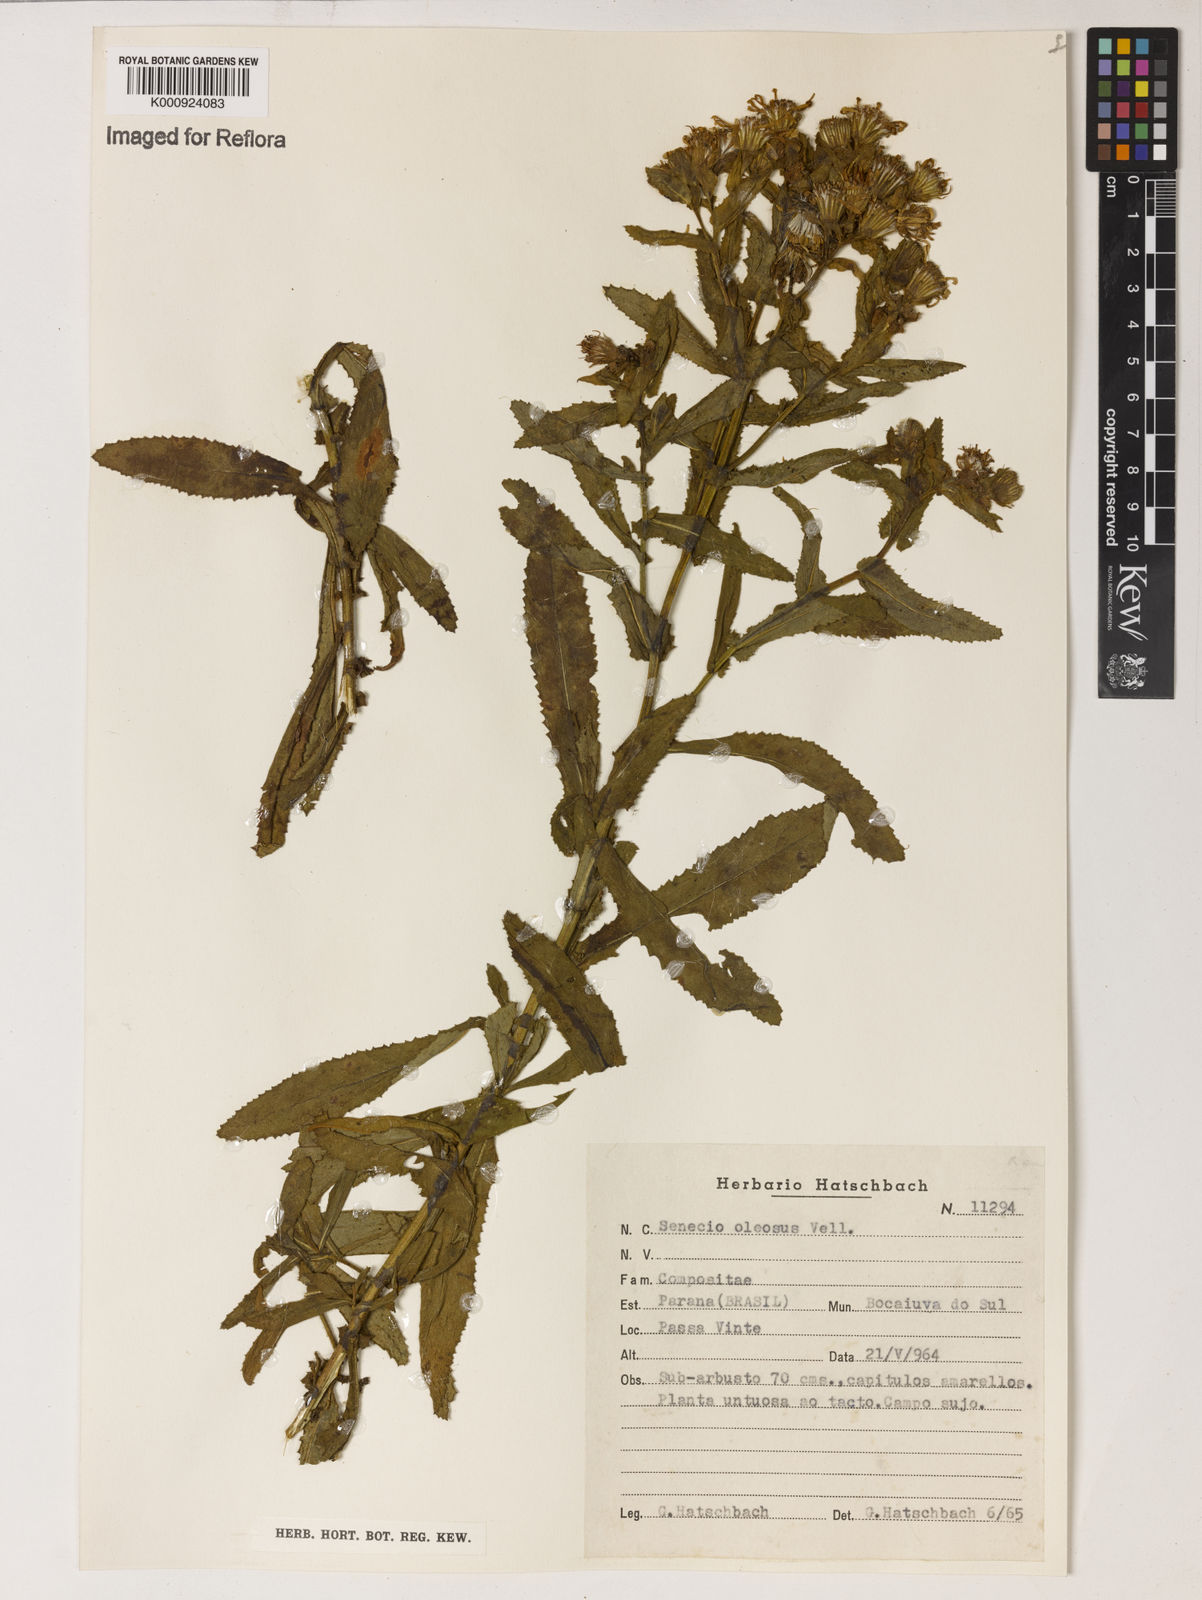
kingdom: Plantae
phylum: Tracheophyta
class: Magnoliopsida
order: Asterales
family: Asteraceae
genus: Senecio
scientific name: Senecio oleosus
